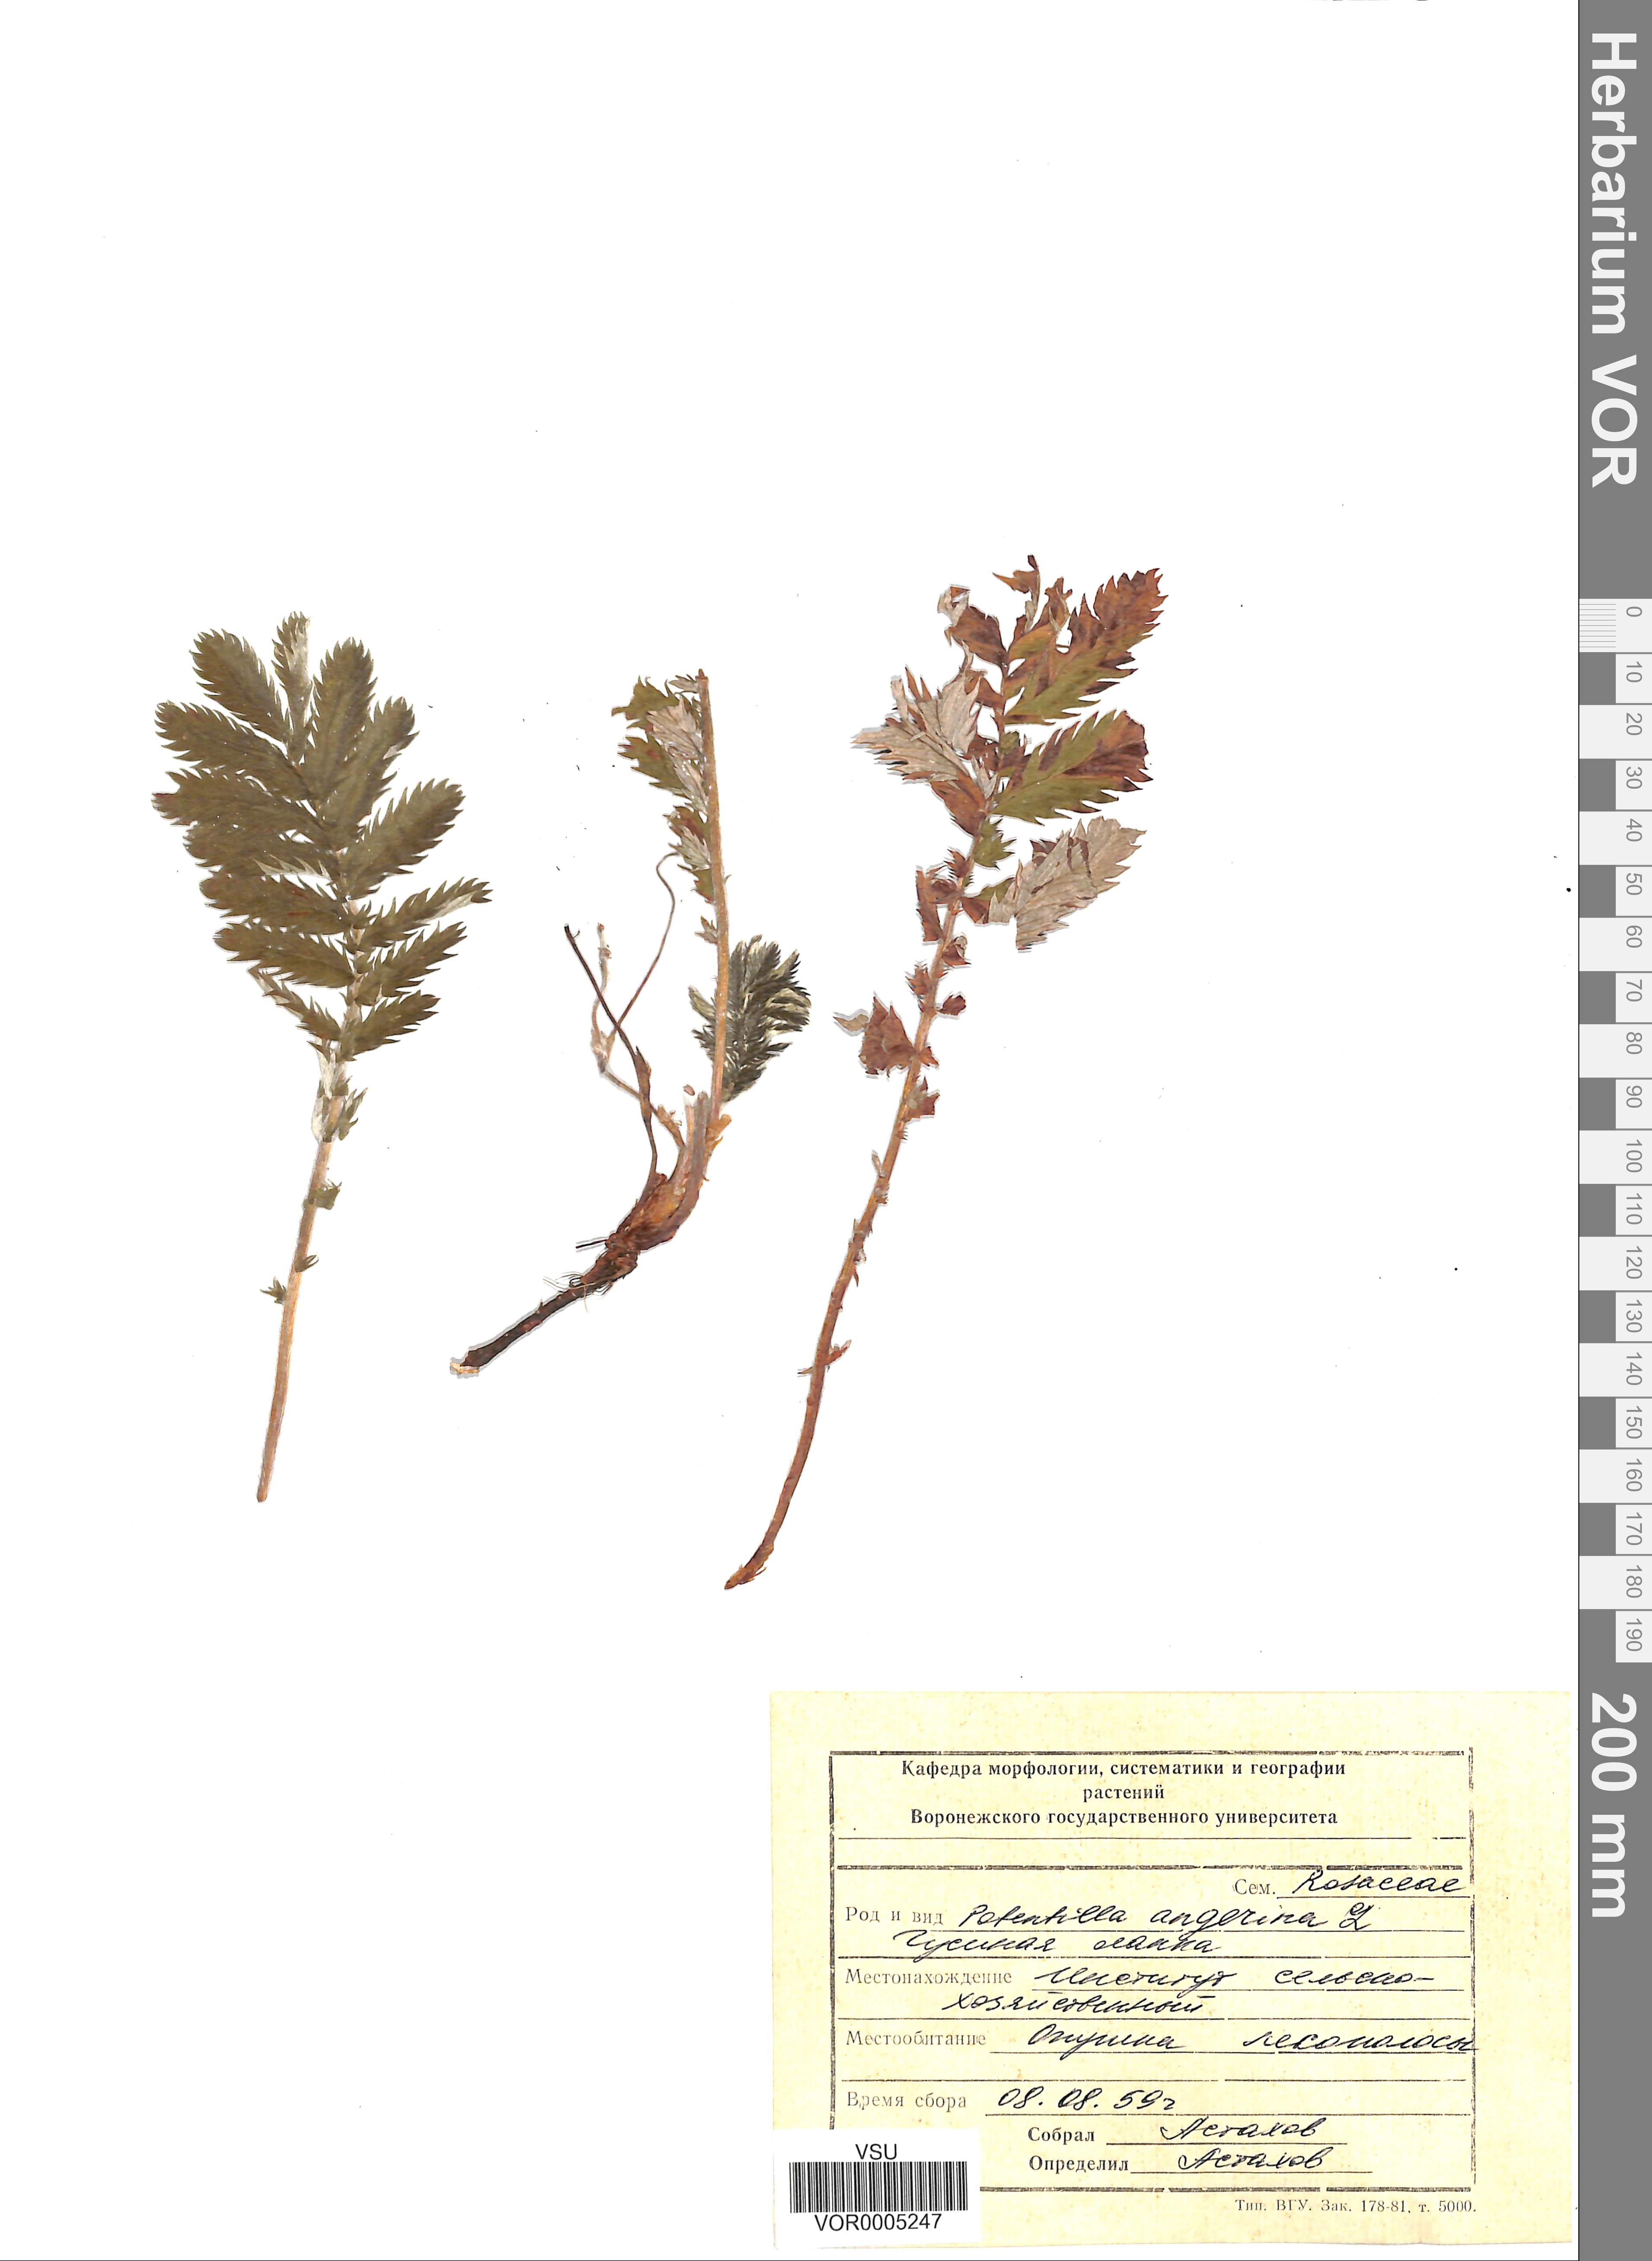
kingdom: Plantae
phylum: Tracheophyta
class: Magnoliopsida
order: Rosales
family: Rosaceae
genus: Argentina
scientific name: Argentina anserina
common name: Common silverweed
